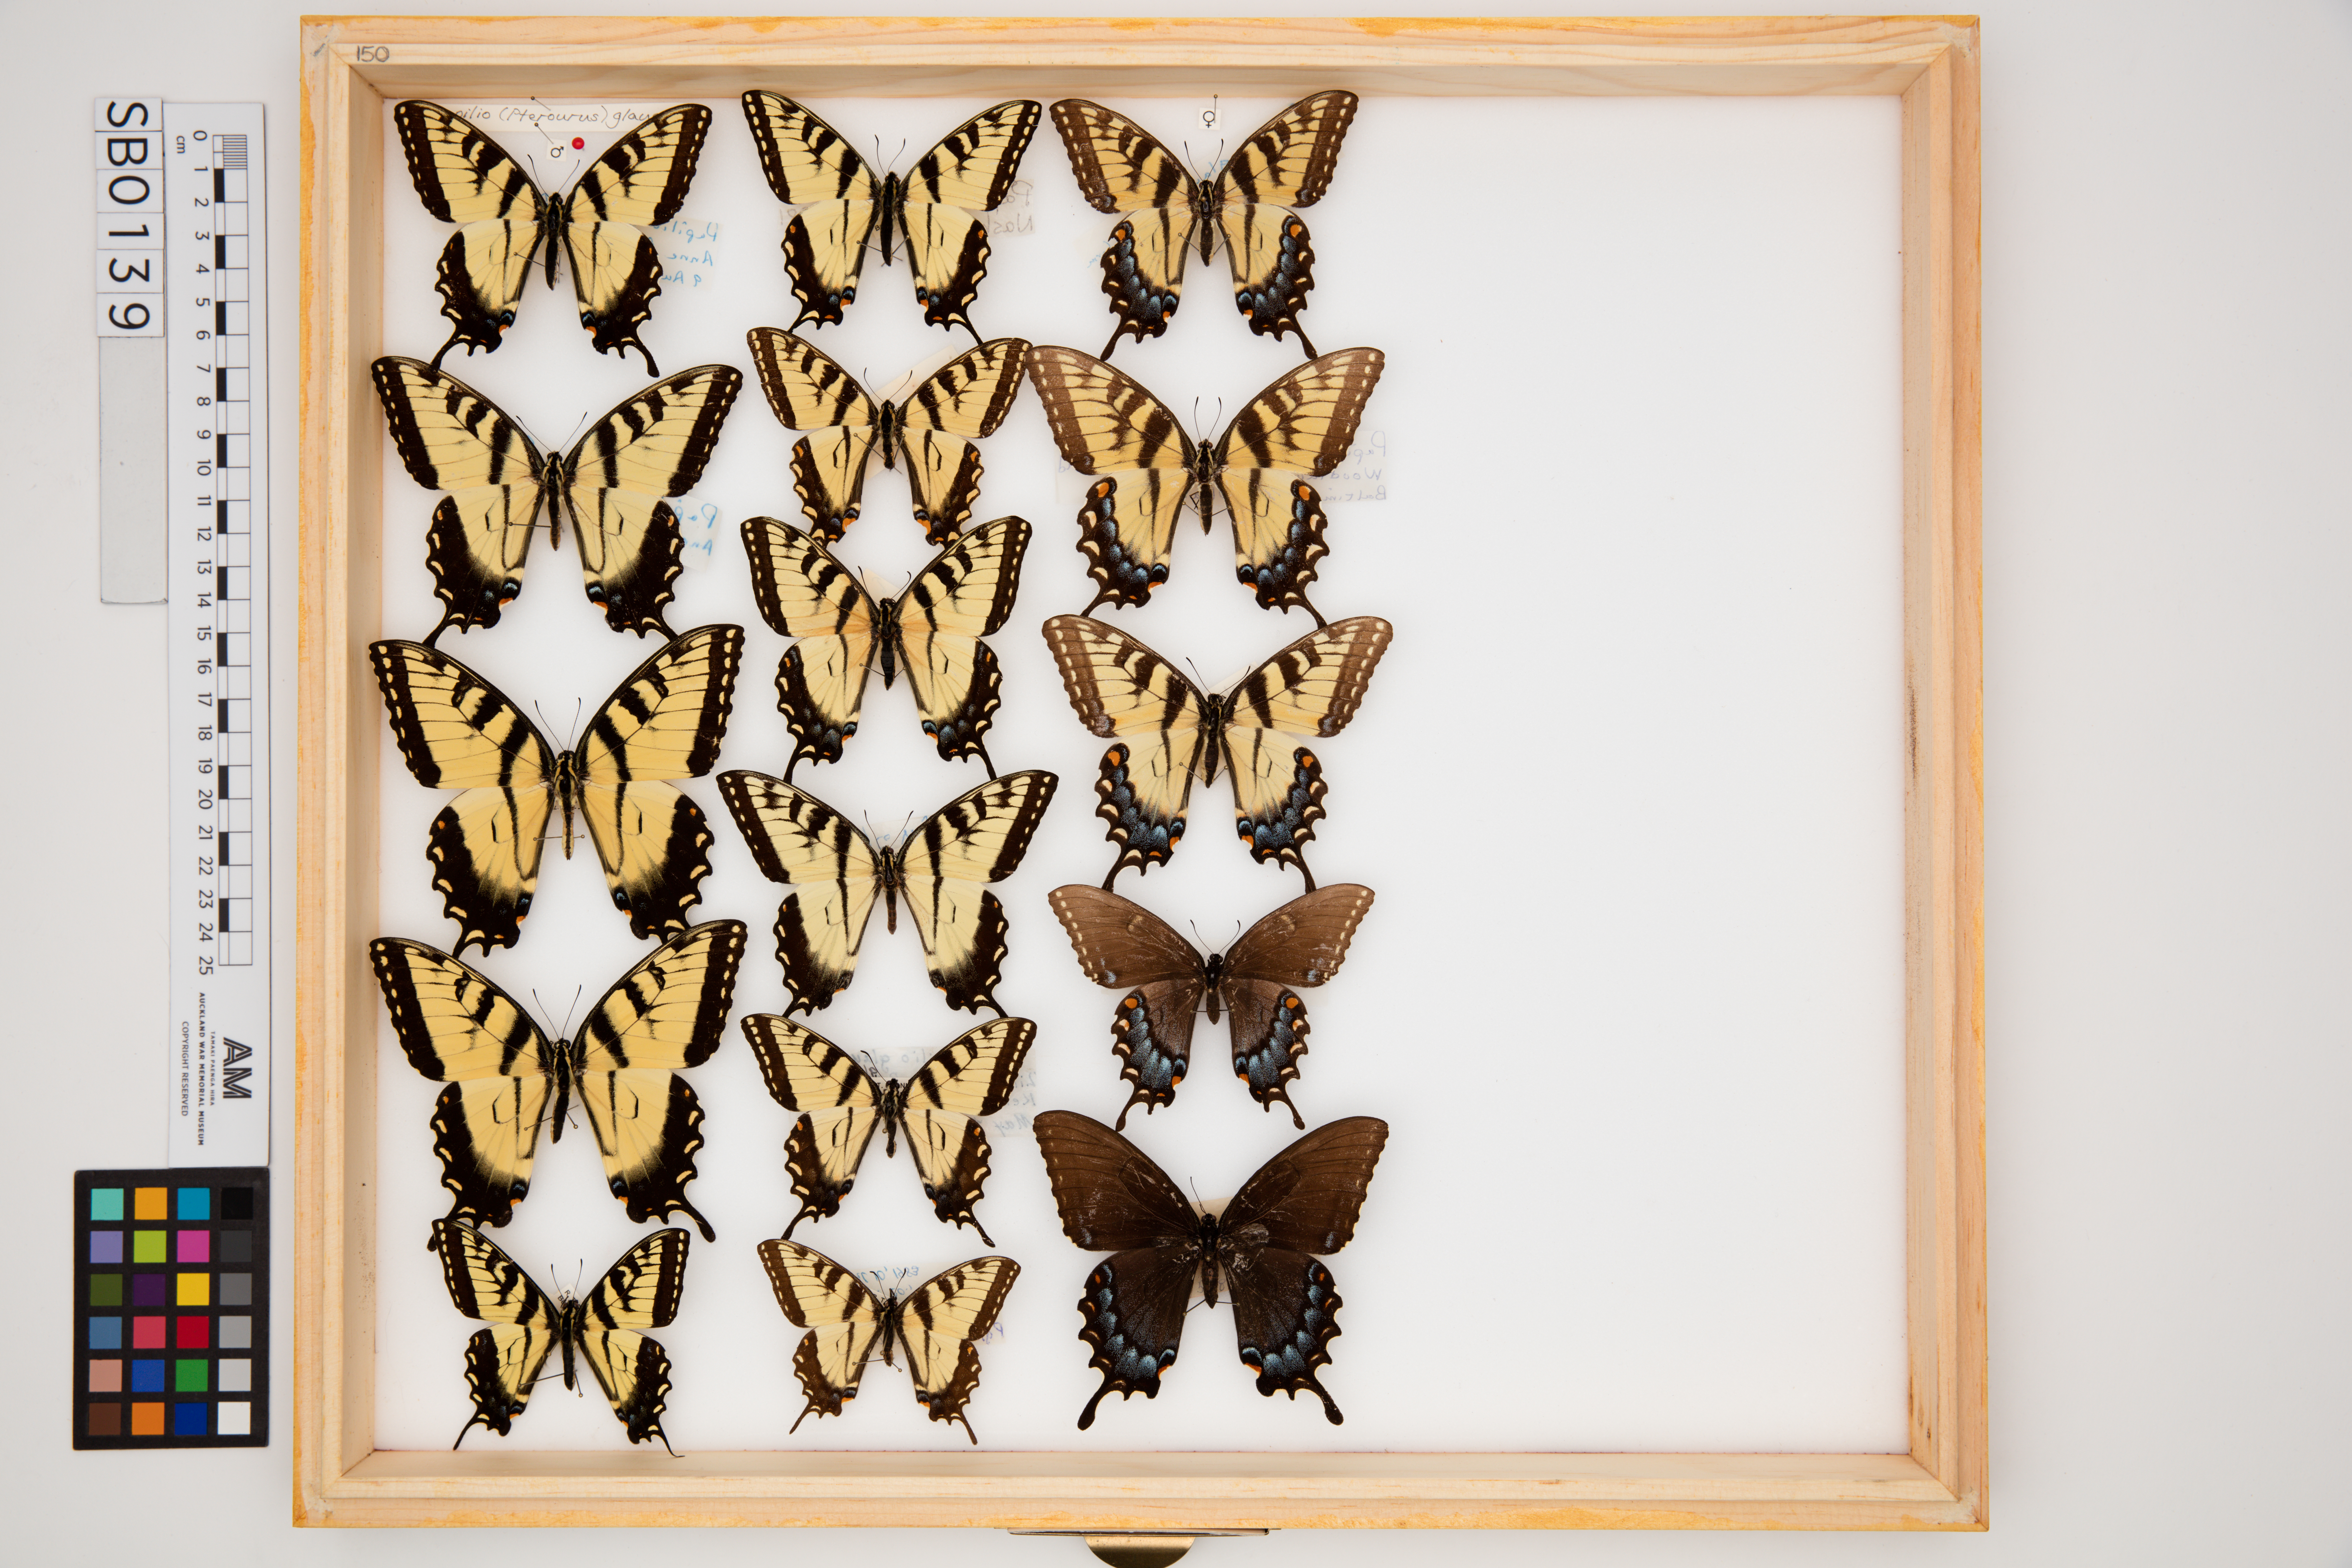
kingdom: Animalia
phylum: Arthropoda
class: Insecta
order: Lepidoptera
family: Papilionidae
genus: Papilio
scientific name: Papilio glaucus
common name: Tiger swallowtail
